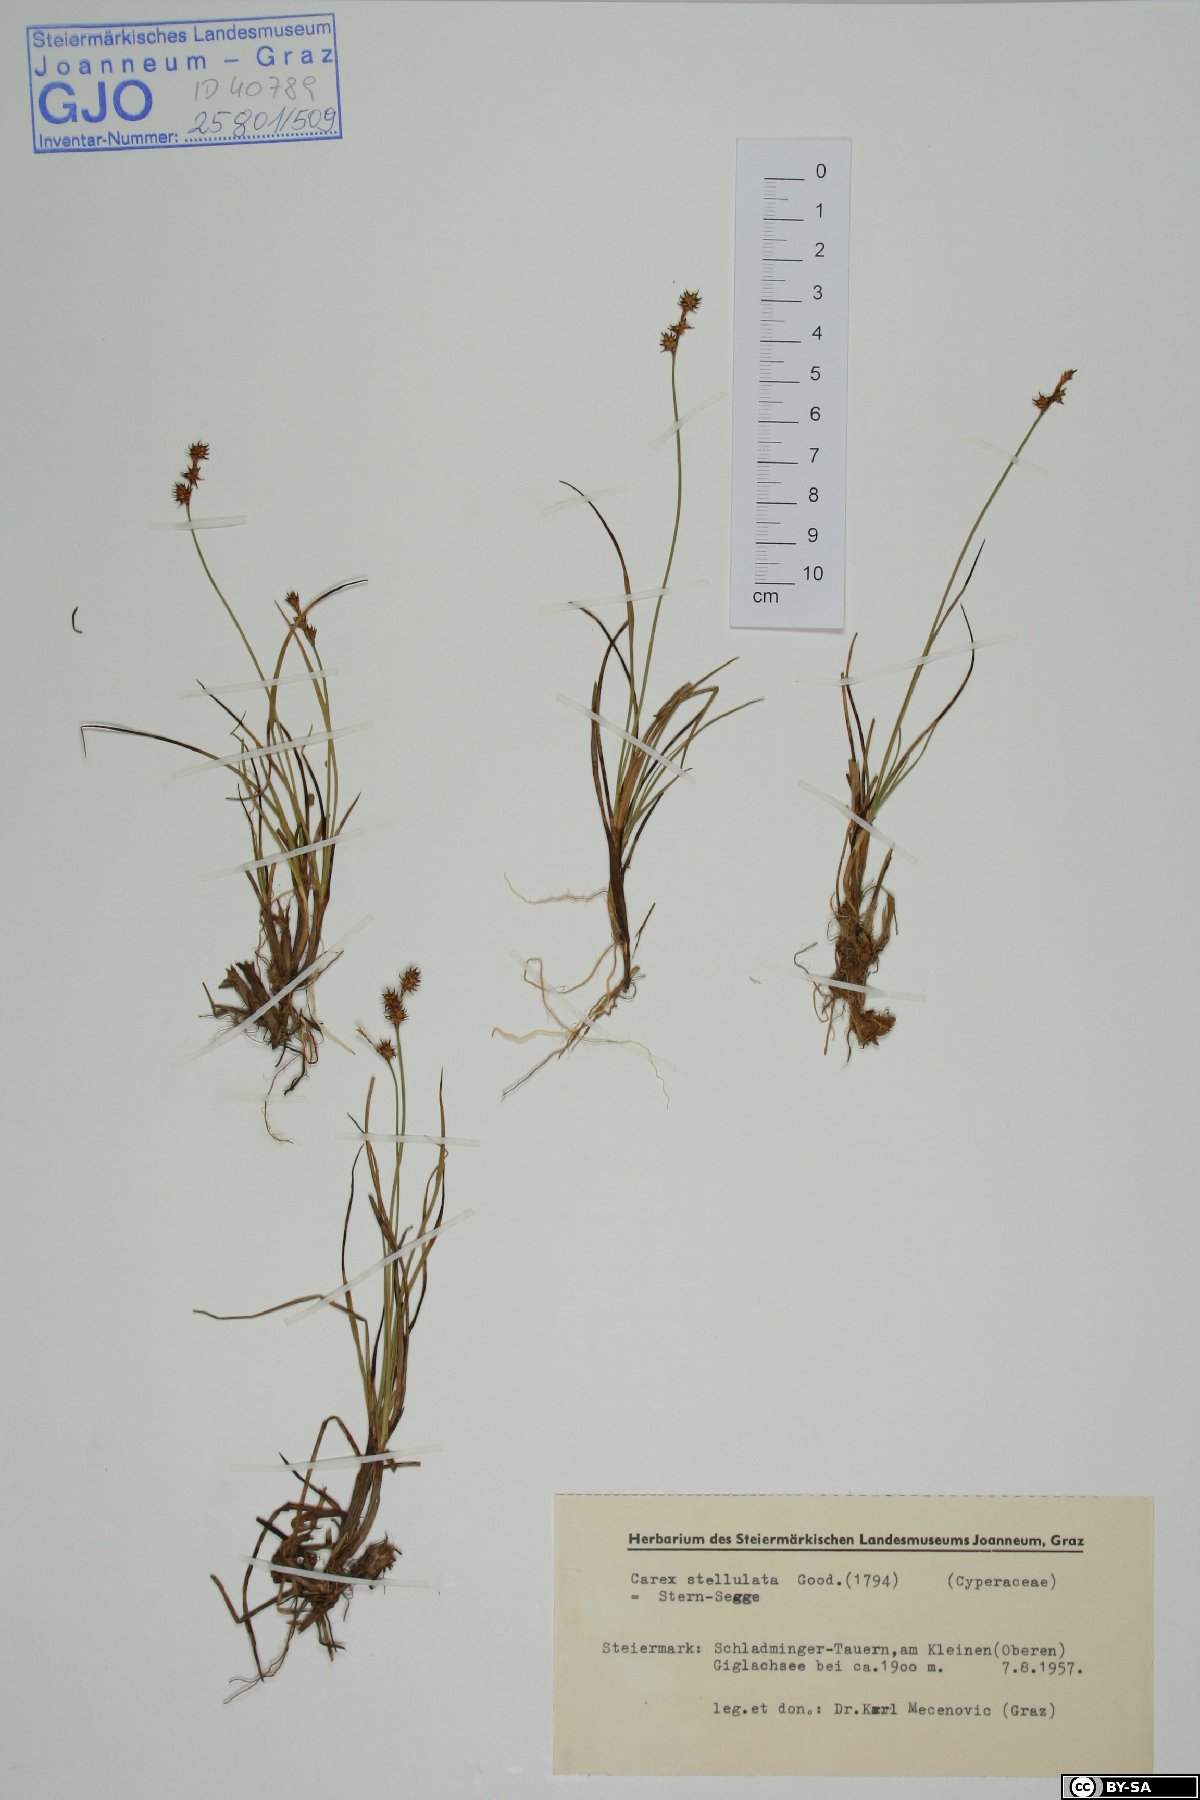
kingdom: Plantae
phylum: Tracheophyta
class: Liliopsida
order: Poales
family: Cyperaceae
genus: Carex
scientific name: Carex echinata
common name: Star sedge
